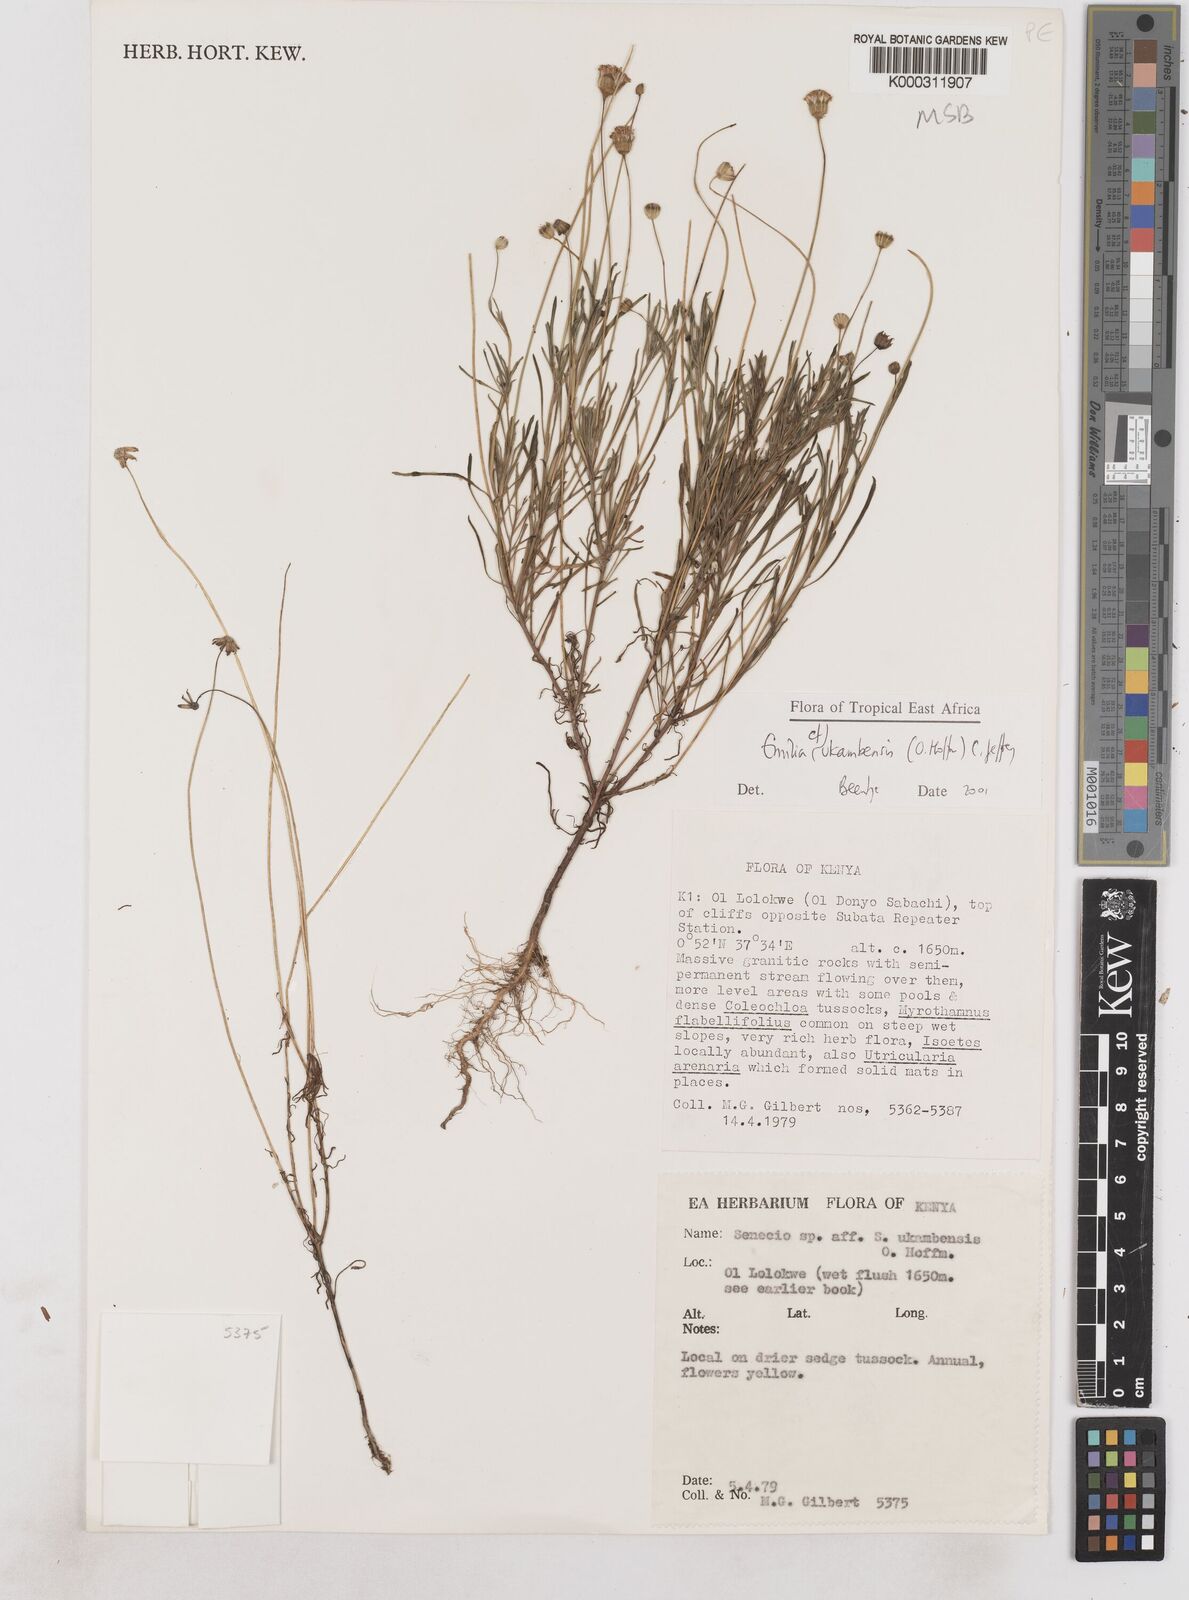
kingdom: Plantae
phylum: Tracheophyta
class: Magnoliopsida
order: Asterales
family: Asteraceae
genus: Emilia
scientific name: Emilia ukambensis
